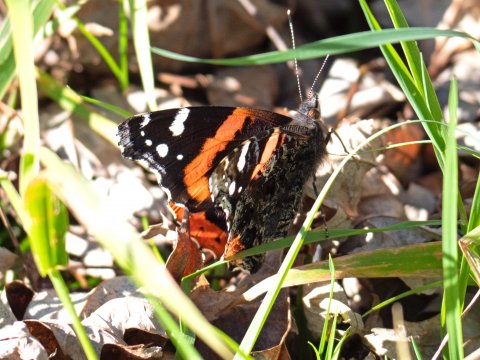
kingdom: Animalia
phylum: Arthropoda
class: Insecta
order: Lepidoptera
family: Nymphalidae
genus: Vanessa
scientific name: Vanessa atalanta
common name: Red Admiral
